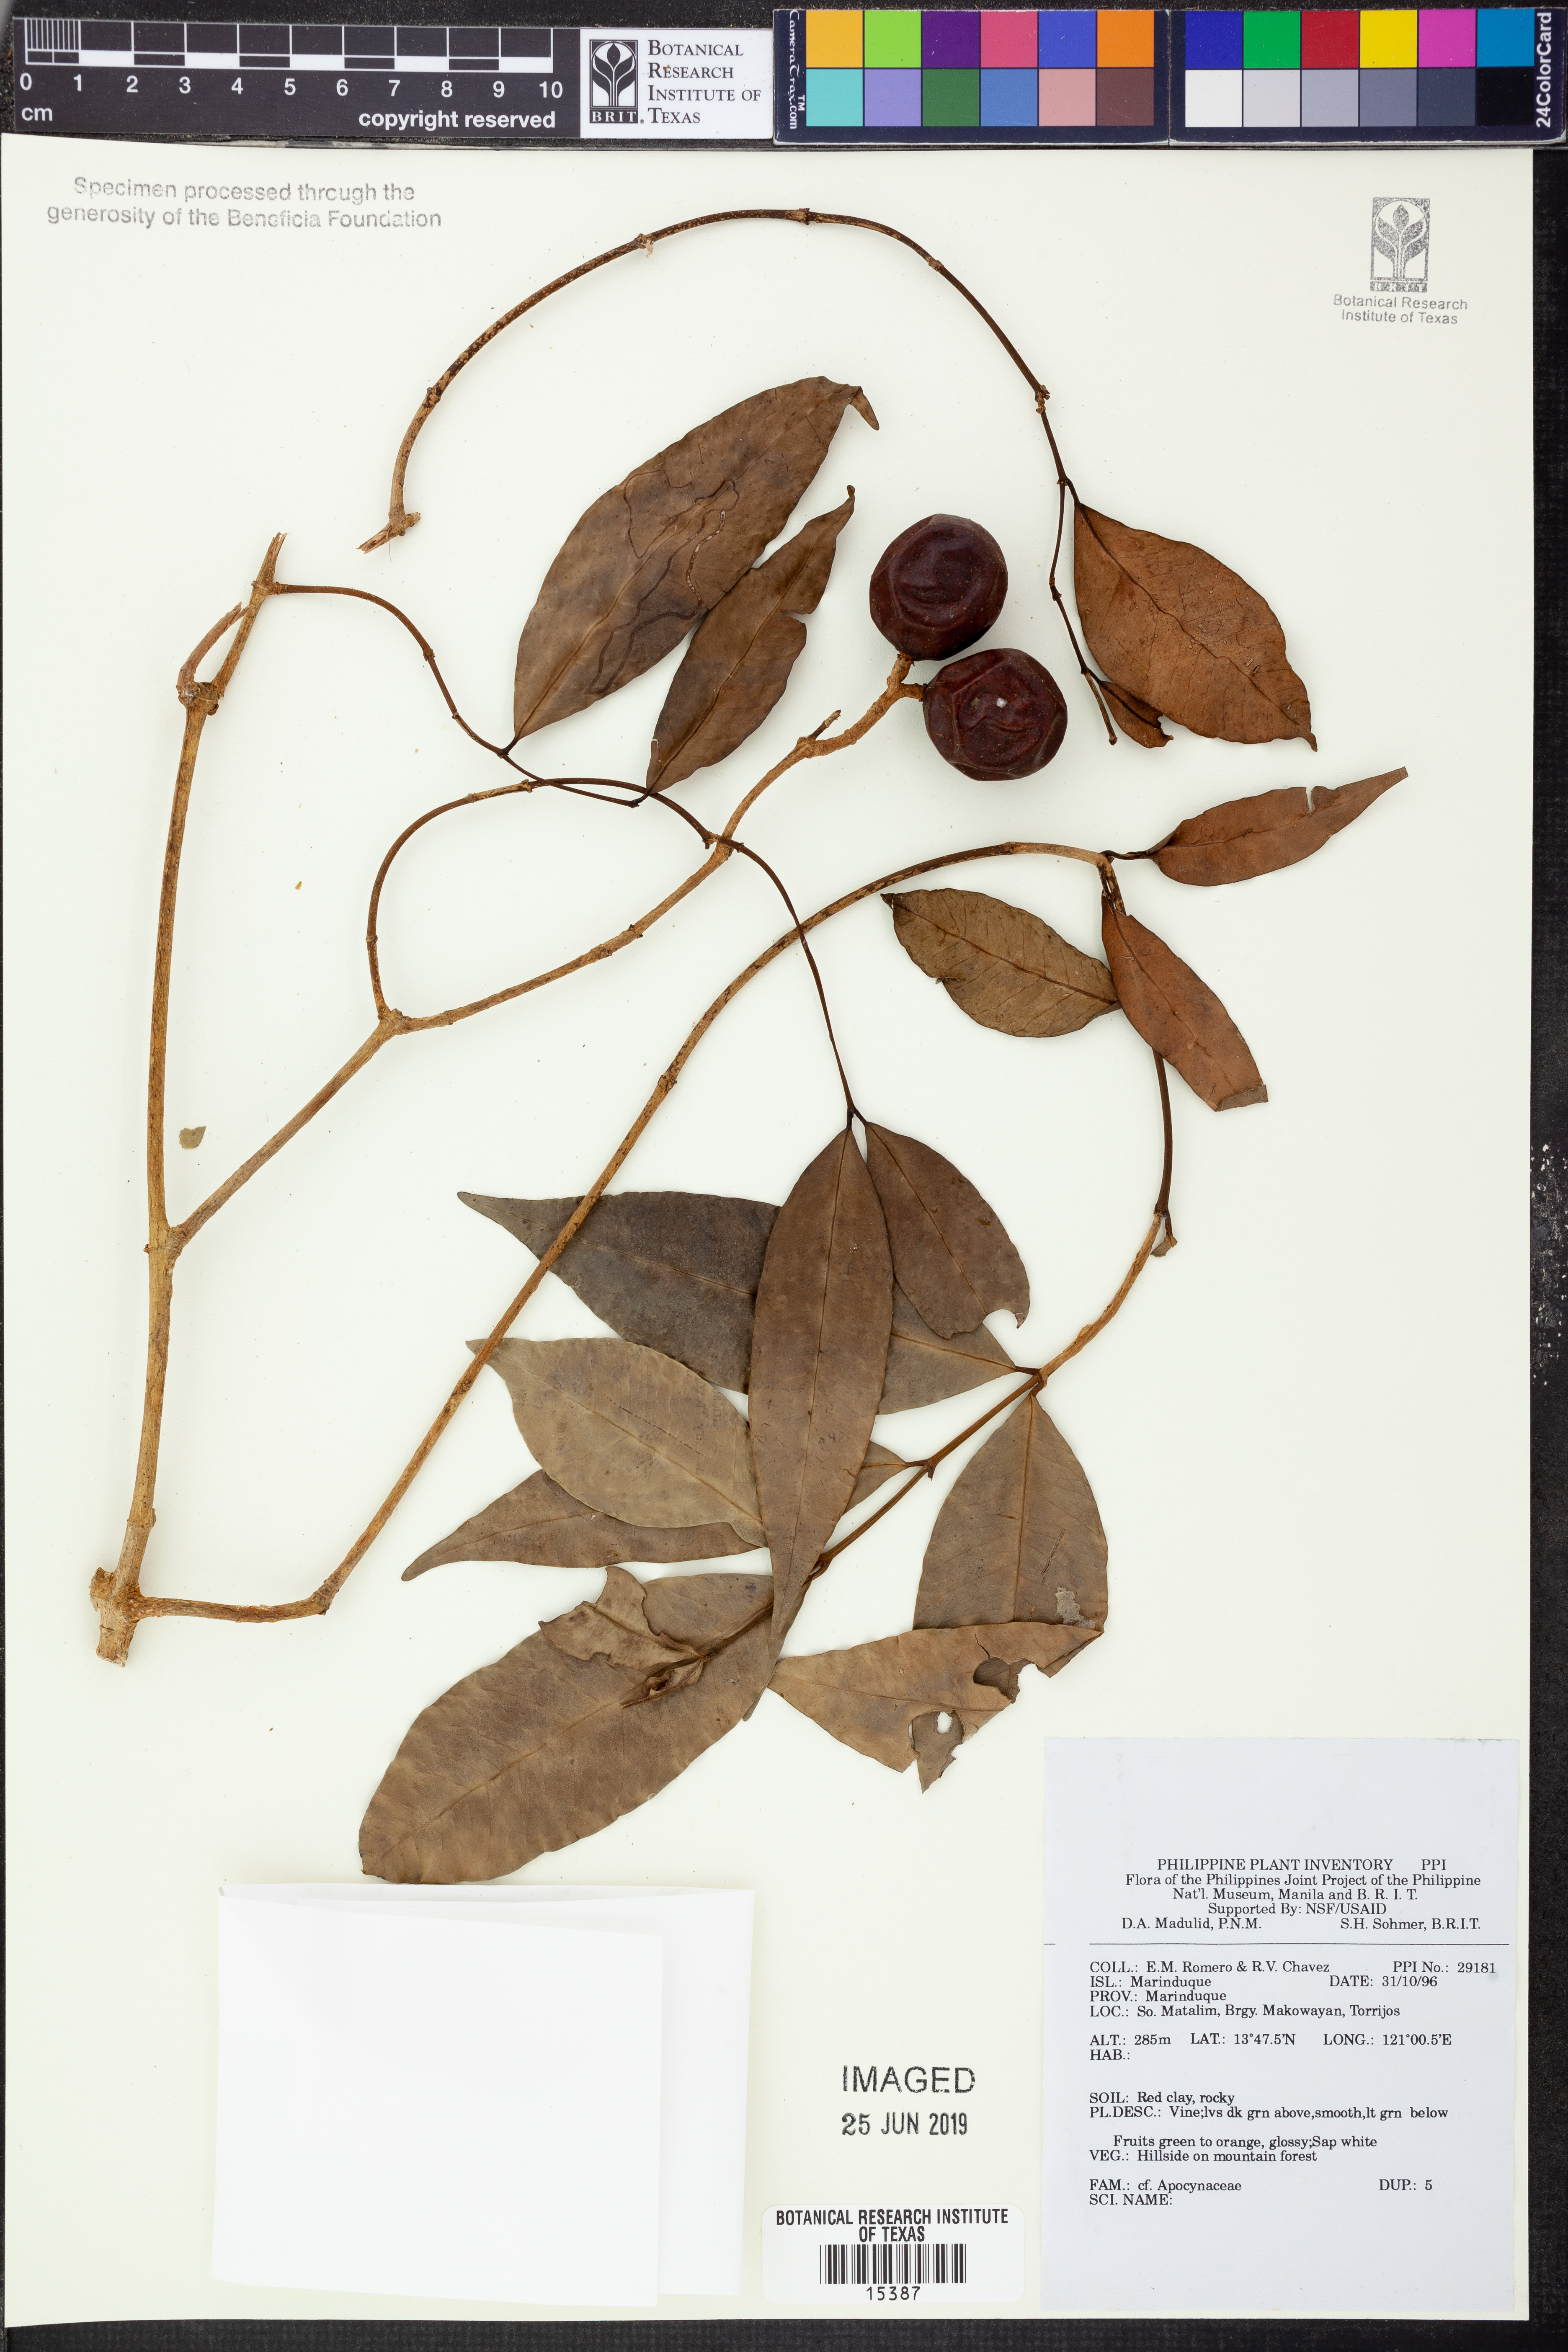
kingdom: Plantae
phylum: Tracheophyta
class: Magnoliopsida
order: Gentianales
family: Apocynaceae
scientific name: Apocynaceae
